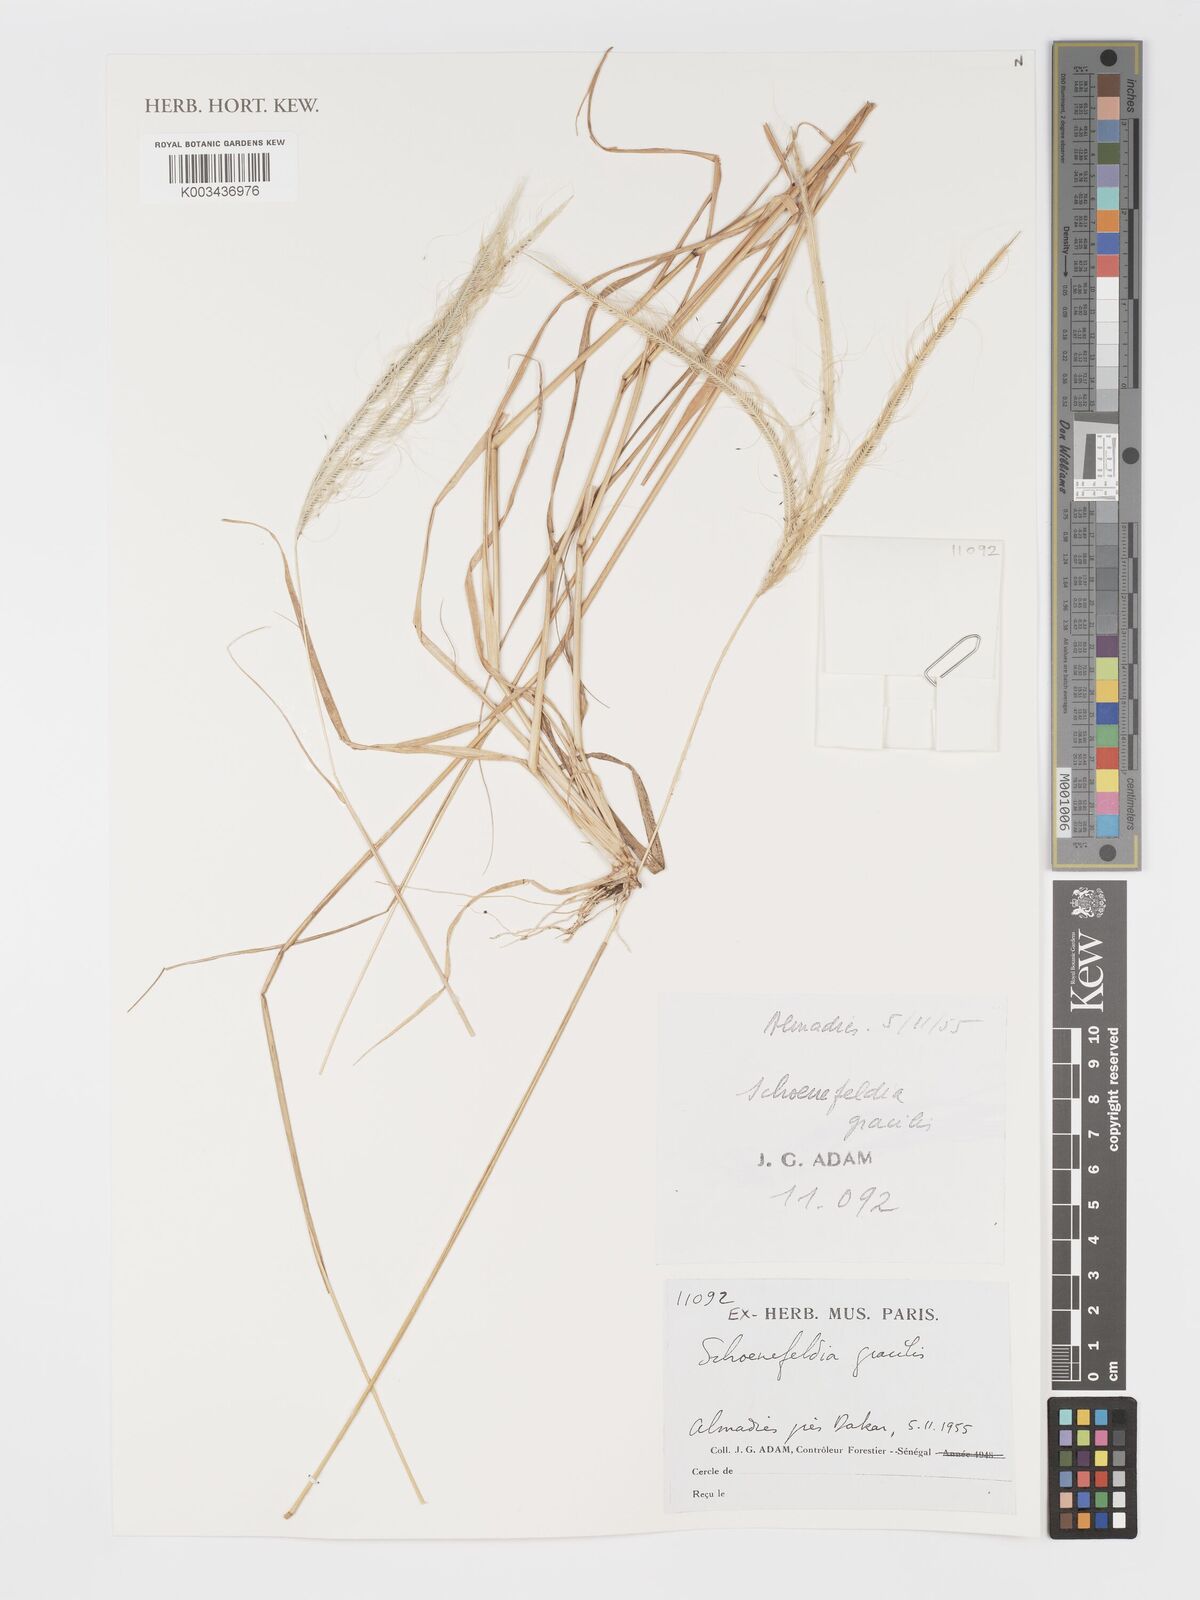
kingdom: Plantae
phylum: Tracheophyta
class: Liliopsida
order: Poales
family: Poaceae
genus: Schoenefeldia
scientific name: Schoenefeldia gracilis
